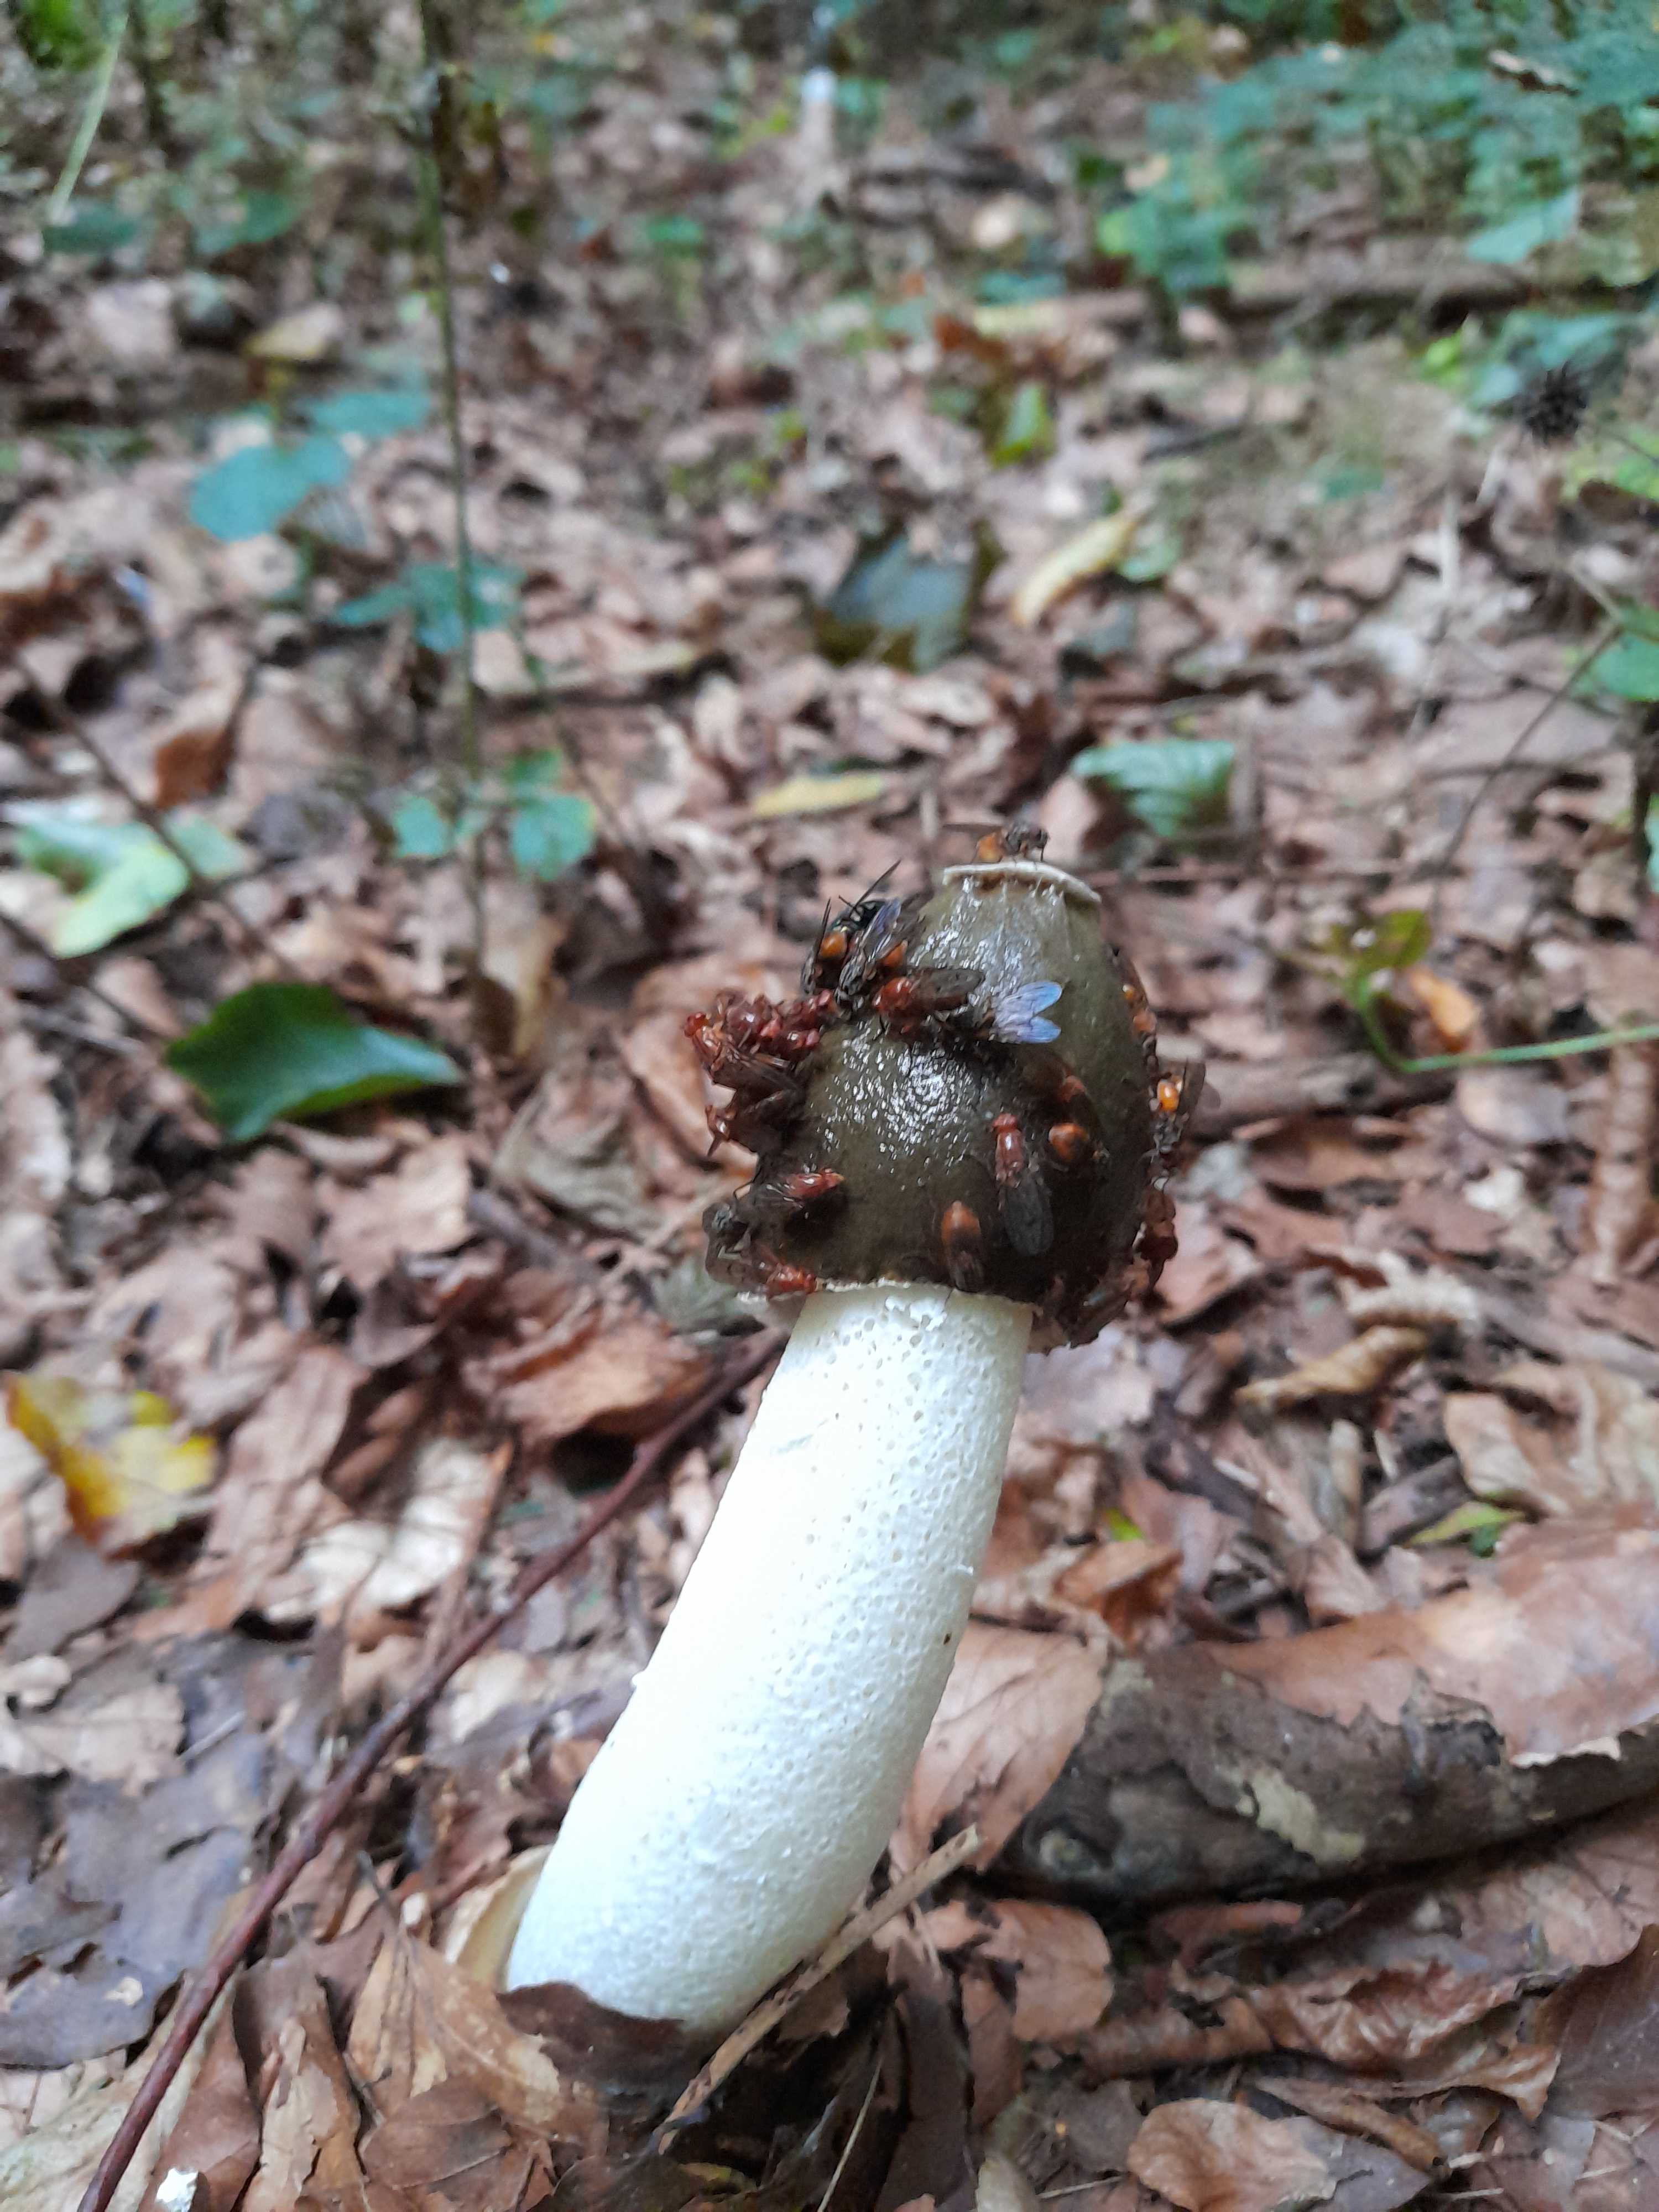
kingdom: Fungi
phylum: Basidiomycota
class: Agaricomycetes
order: Phallales
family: Phallaceae
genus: Phallus
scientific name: Phallus impudicus
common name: almindelig stinksvamp
